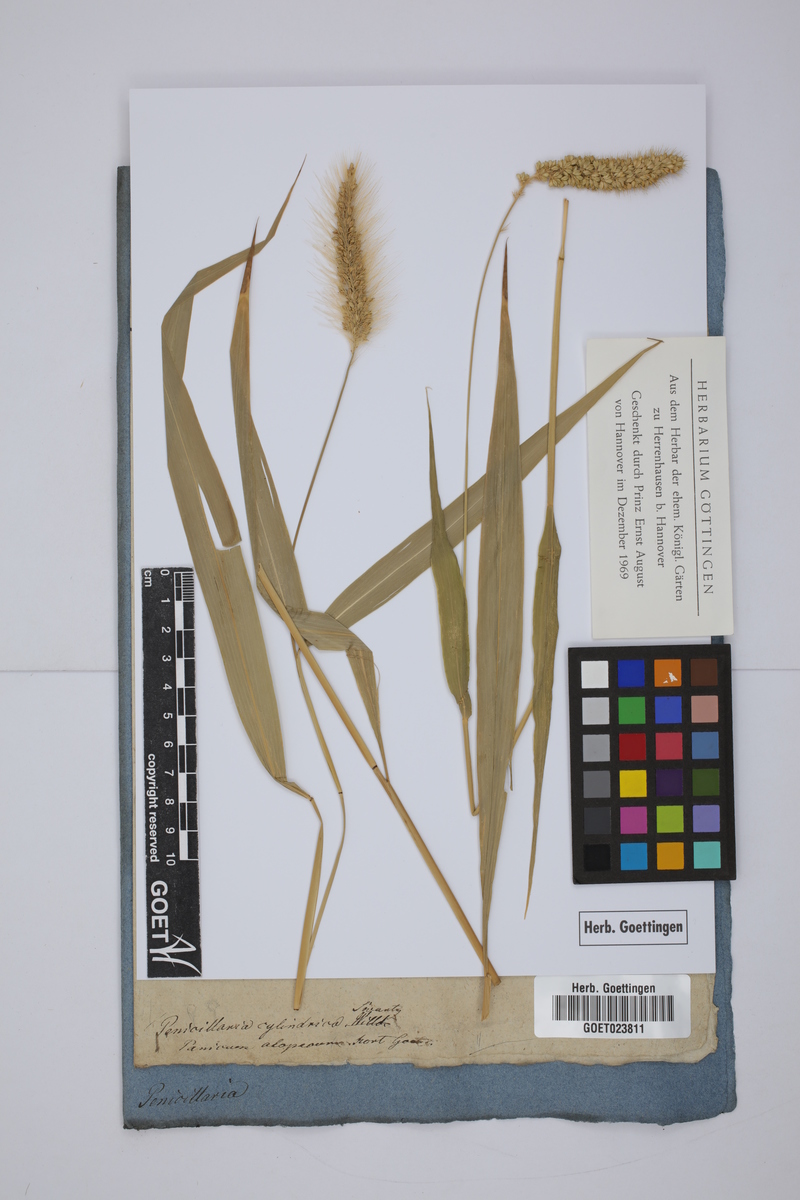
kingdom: Plantae
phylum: Tracheophyta
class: Liliopsida
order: Poales
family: Poaceae
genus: Cenchrus
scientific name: Cenchrus alopecuroides
